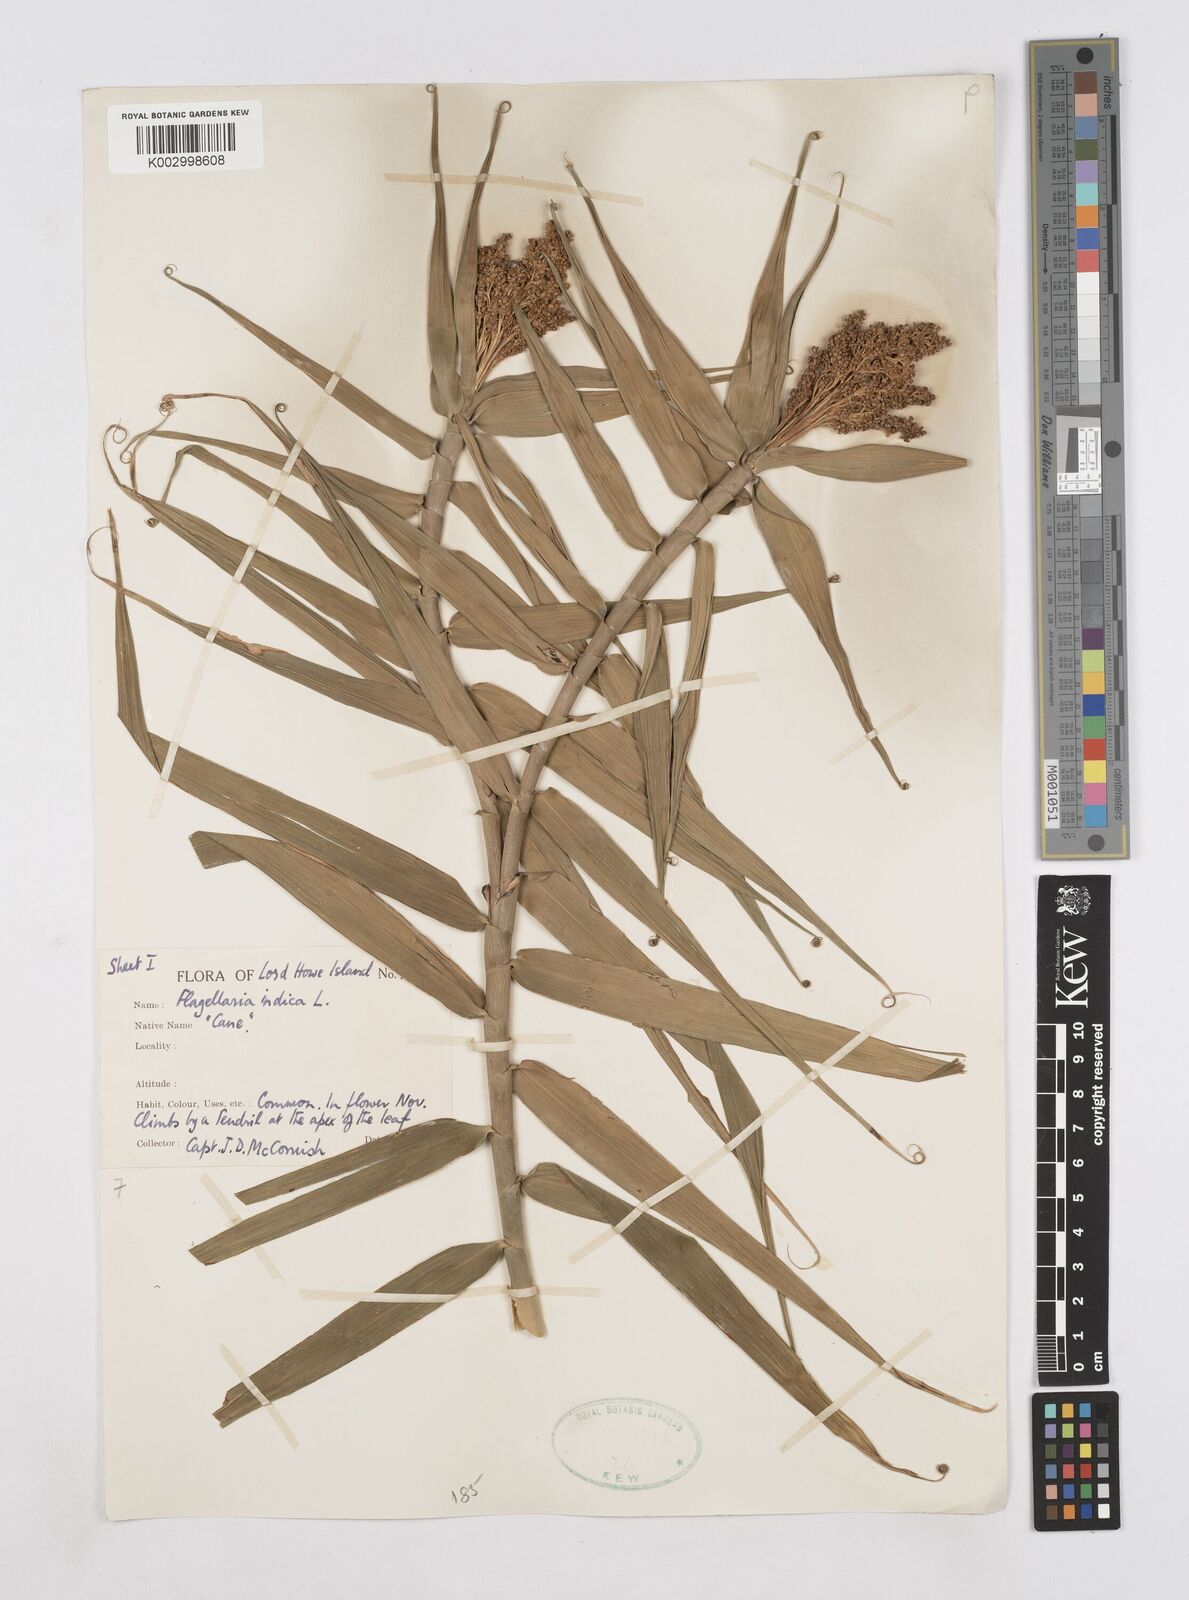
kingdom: Plantae
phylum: Tracheophyta
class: Liliopsida
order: Poales
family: Flagellariaceae
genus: Flagellaria
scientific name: Flagellaria indica
